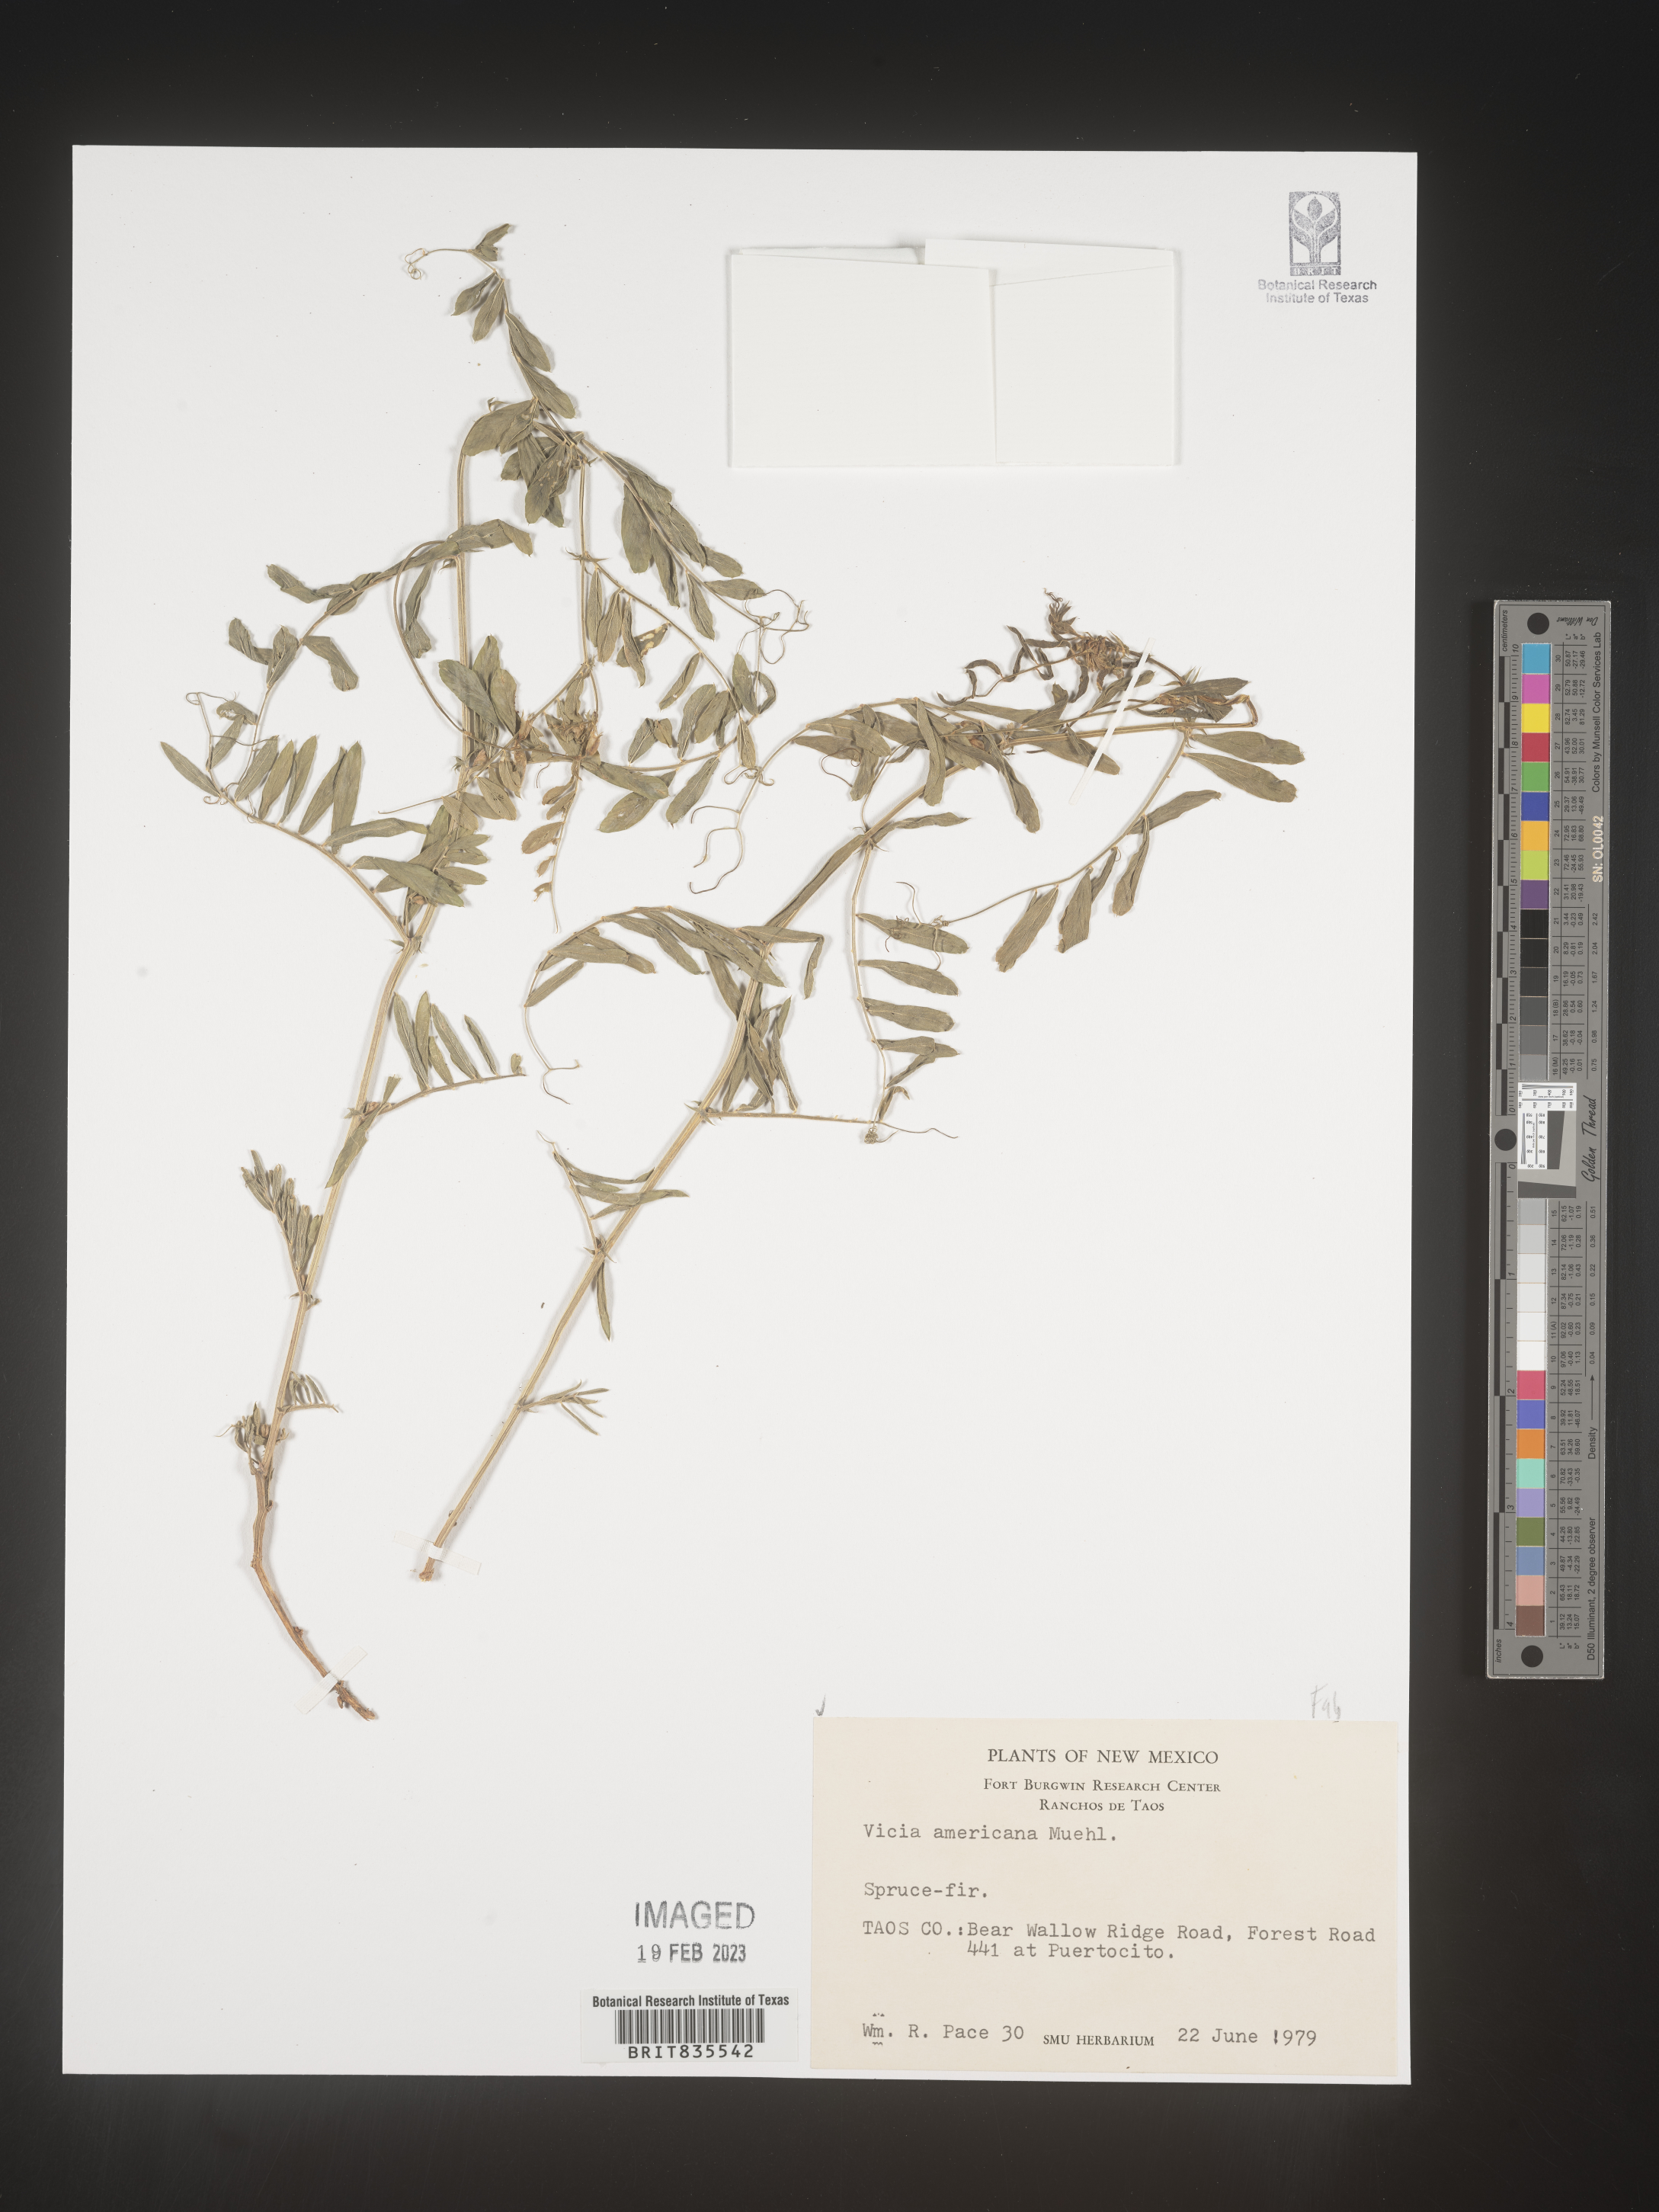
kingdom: Plantae
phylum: Tracheophyta
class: Magnoliopsida
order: Fabales
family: Fabaceae
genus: Vicia
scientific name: Vicia americana
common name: American vetch
